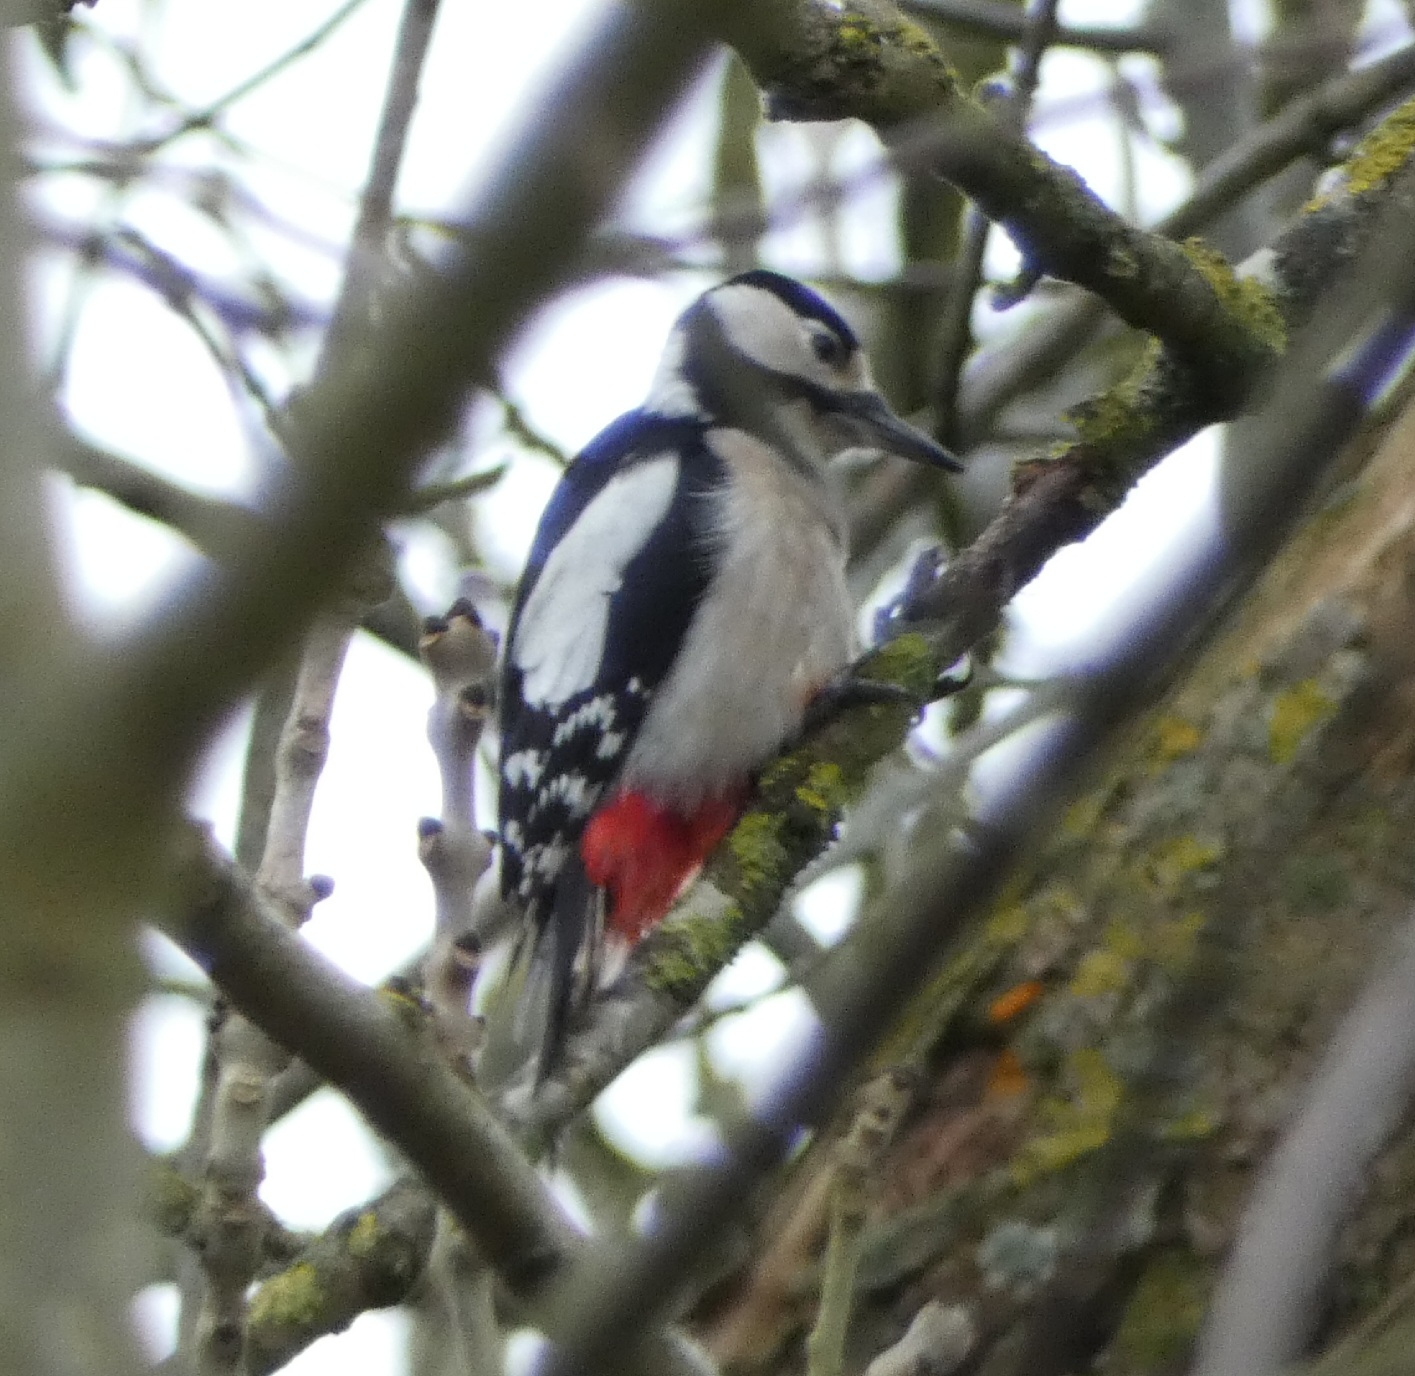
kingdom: Animalia
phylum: Chordata
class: Aves
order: Piciformes
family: Picidae
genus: Dendrocopos
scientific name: Dendrocopos major
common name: Stor flagspætte
